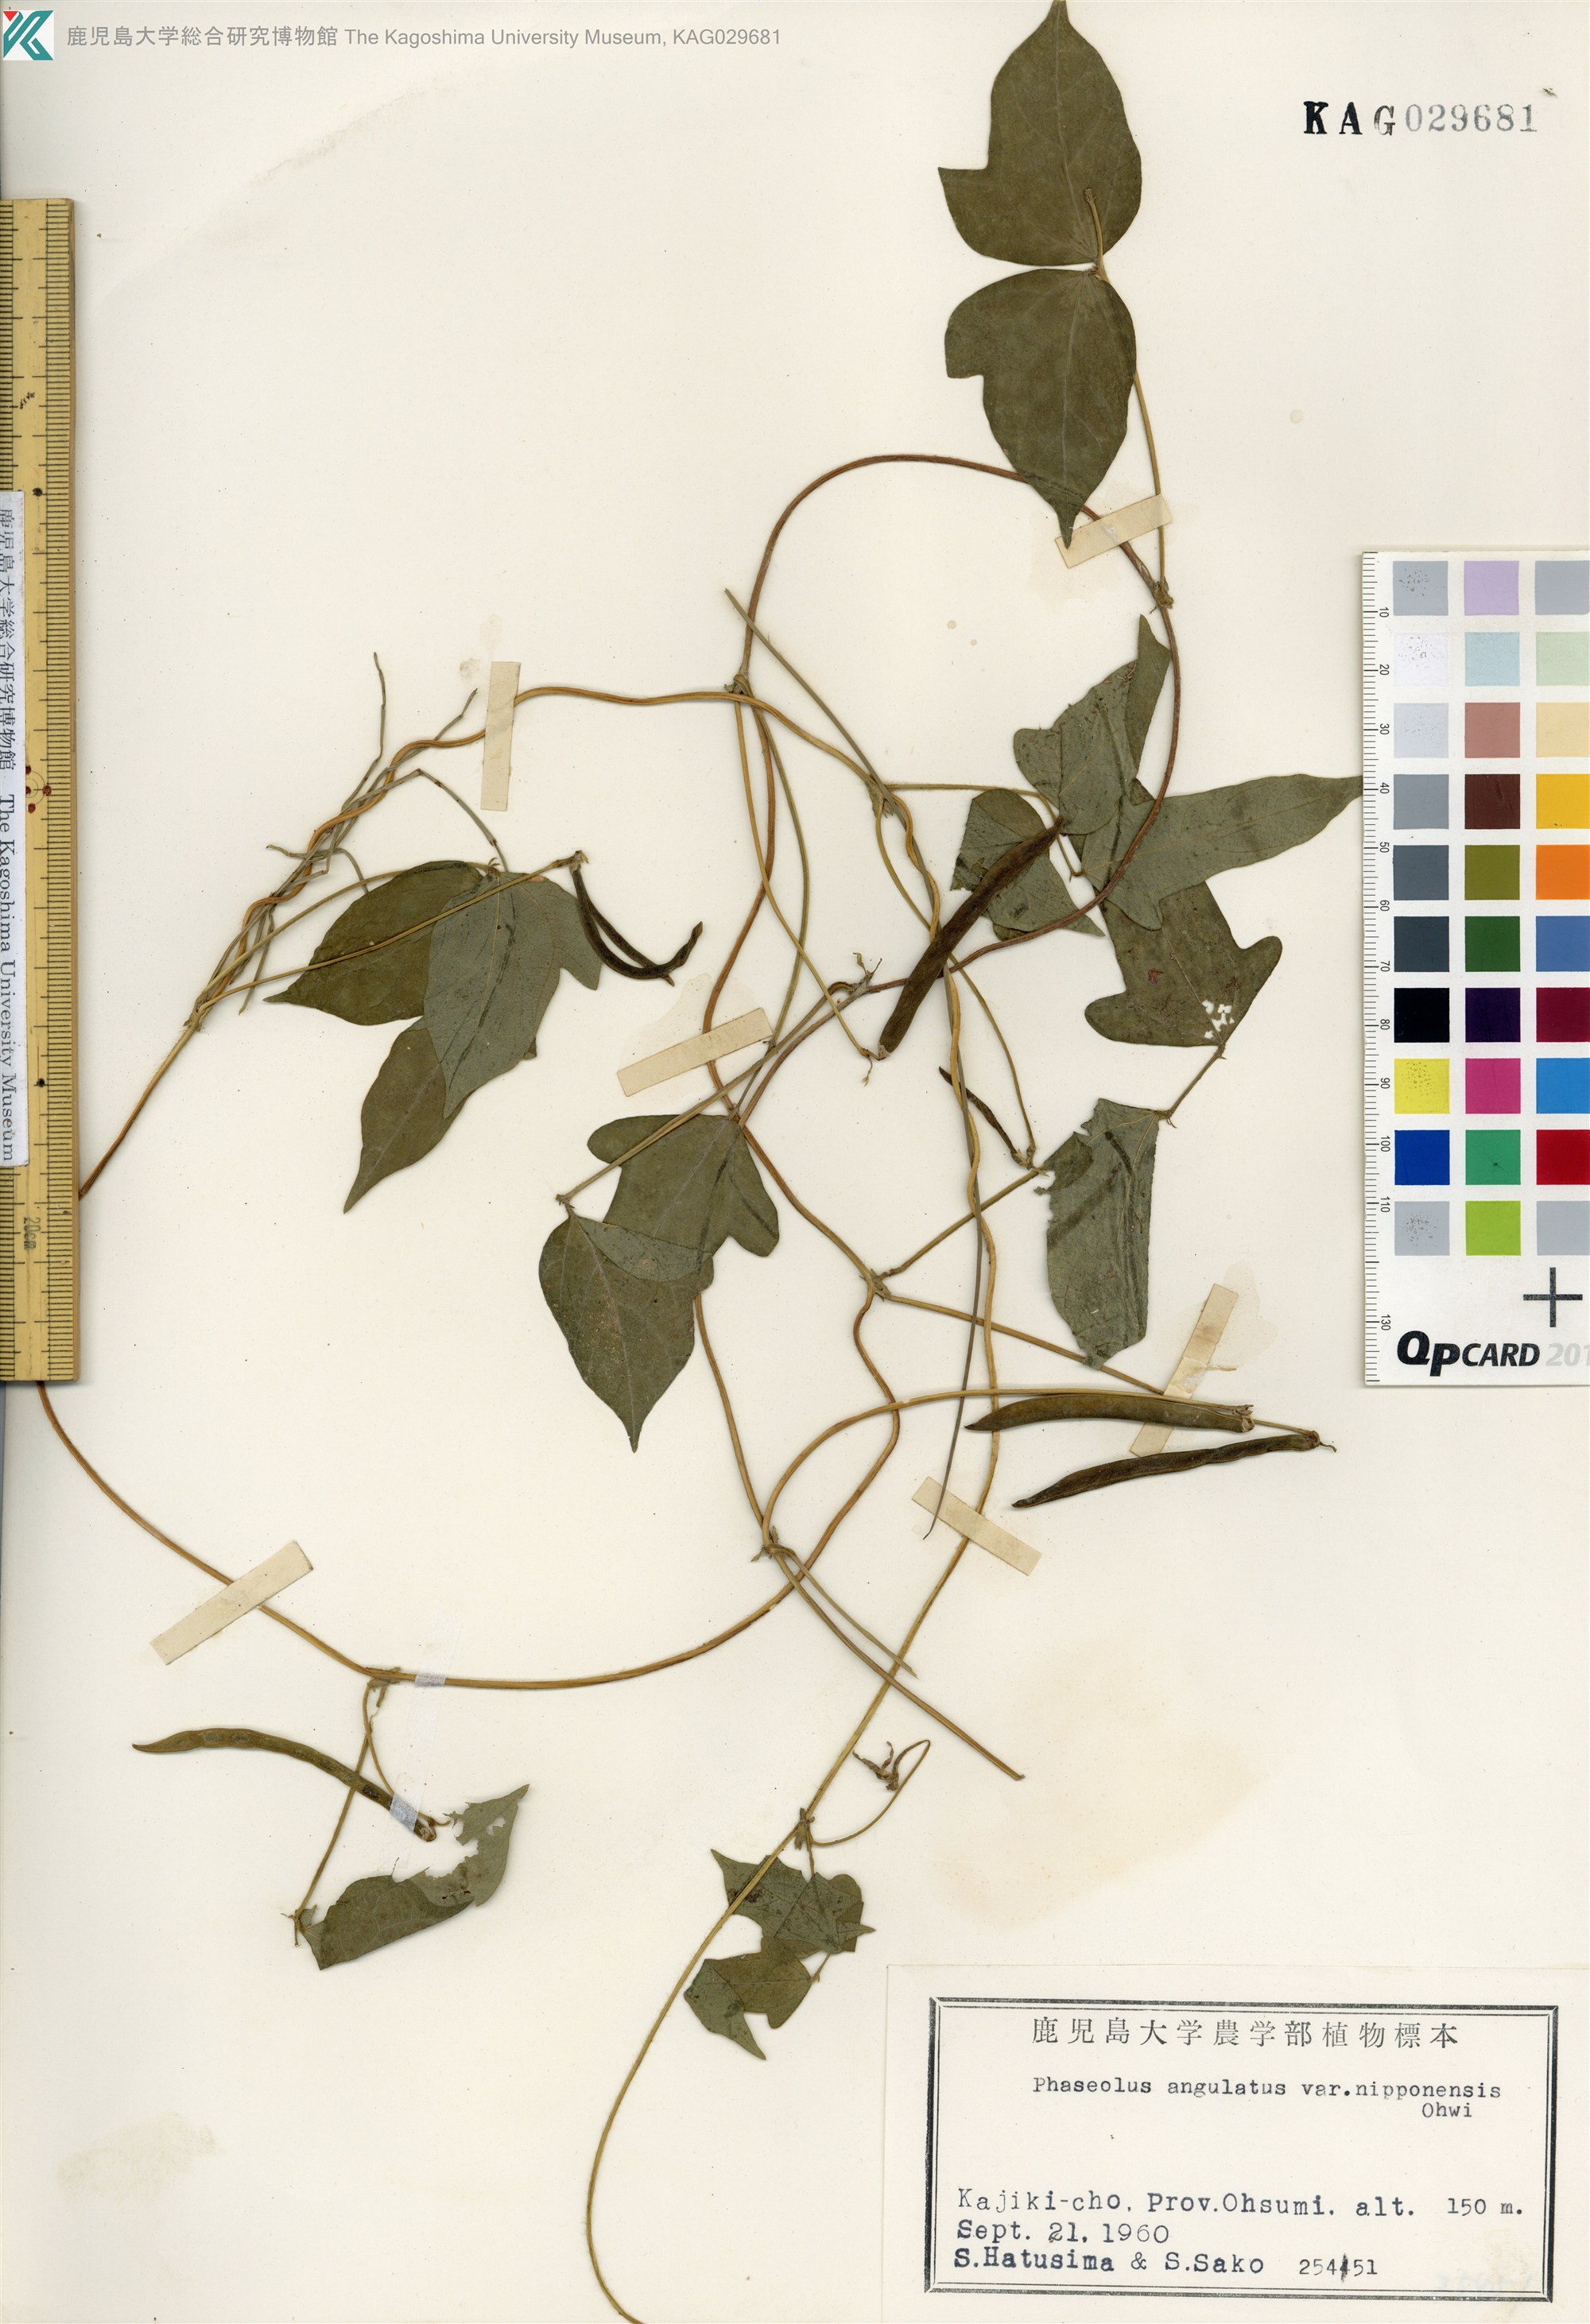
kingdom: Plantae
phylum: Tracheophyta
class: Magnoliopsida
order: Fabales
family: Fabaceae
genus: Vigna
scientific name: Vigna angularis
